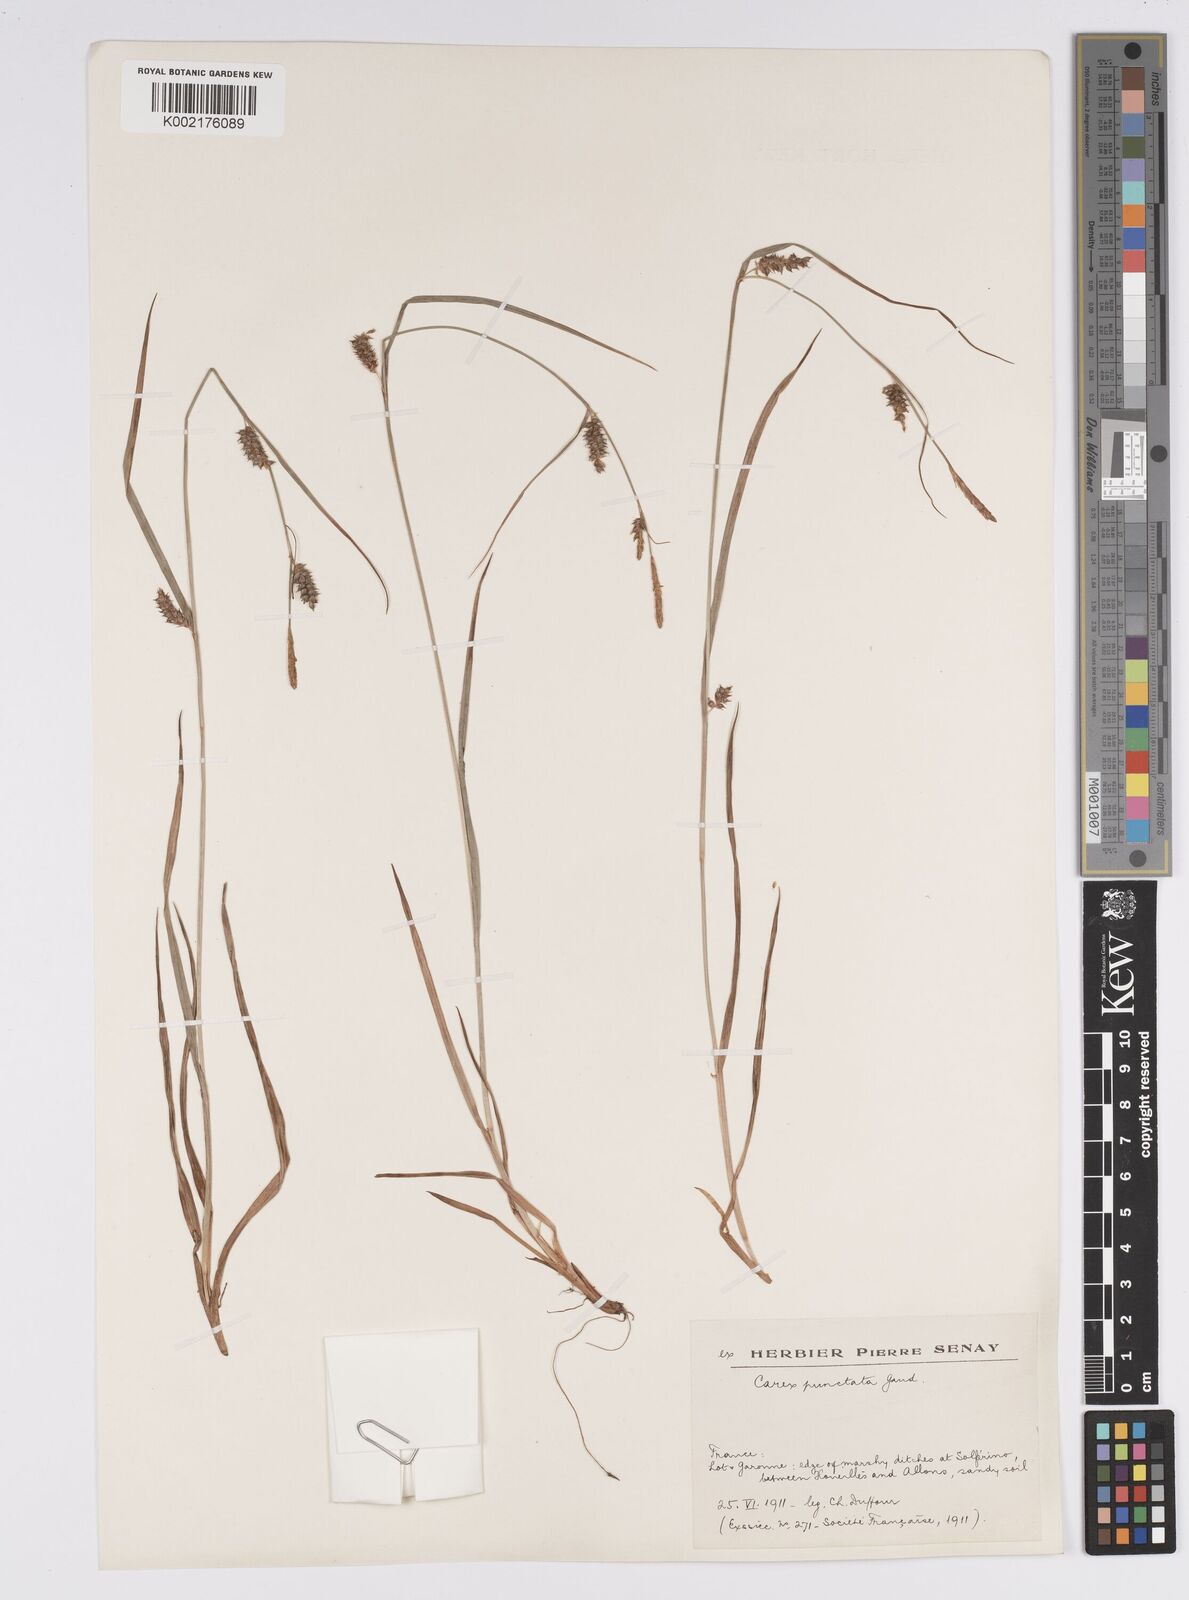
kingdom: Plantae
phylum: Tracheophyta
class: Liliopsida
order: Poales
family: Cyperaceae
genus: Carex
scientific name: Carex punctata
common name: Dotted sedge
